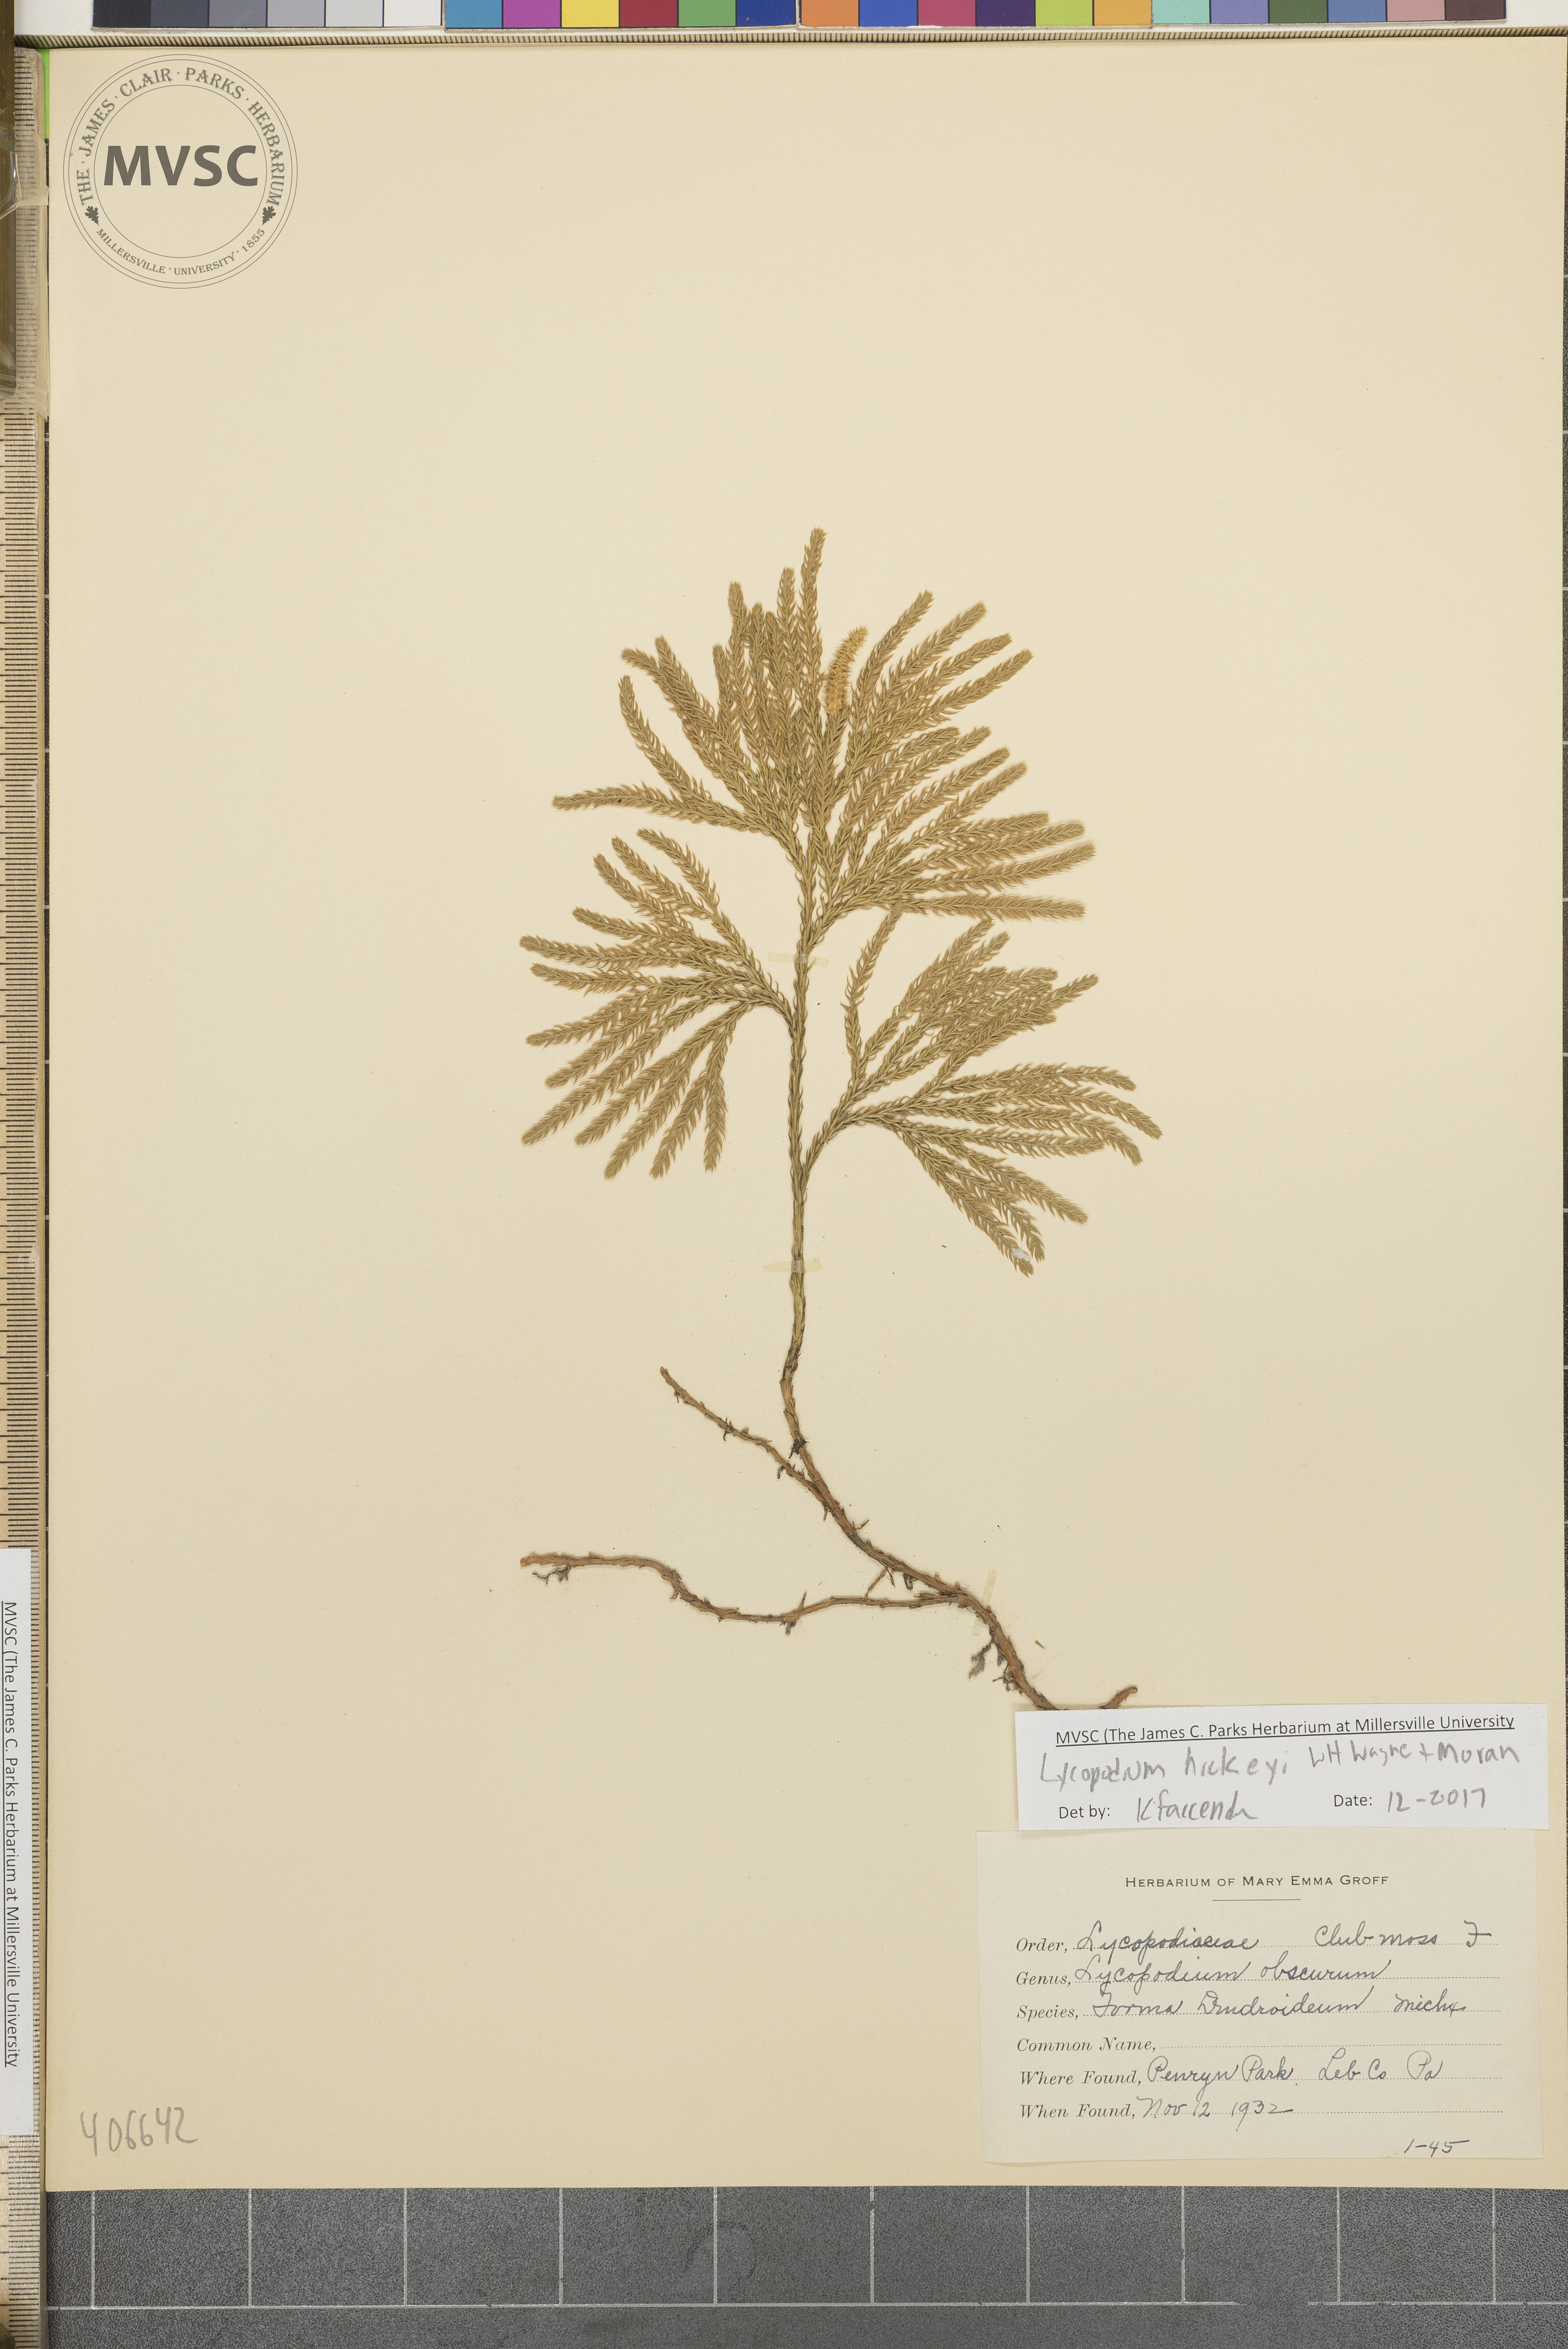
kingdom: Plantae
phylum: Tracheophyta
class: Lycopodiopsida
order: Lycopodiales
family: Lycopodiaceae
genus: Dendrolycopodium
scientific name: Dendrolycopodium hickeyi
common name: Hickey's clubmoss
